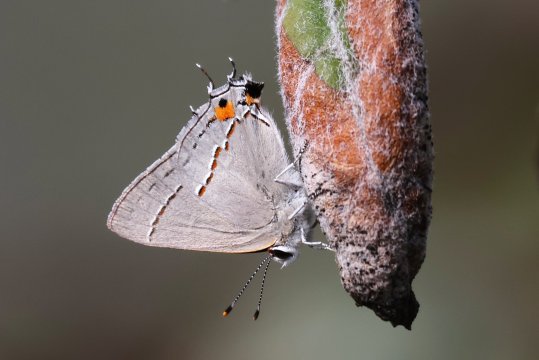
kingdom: Animalia
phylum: Arthropoda
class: Insecta
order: Lepidoptera
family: Lycaenidae
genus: Strymon
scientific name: Strymon melinus
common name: Gray Hairstreak
